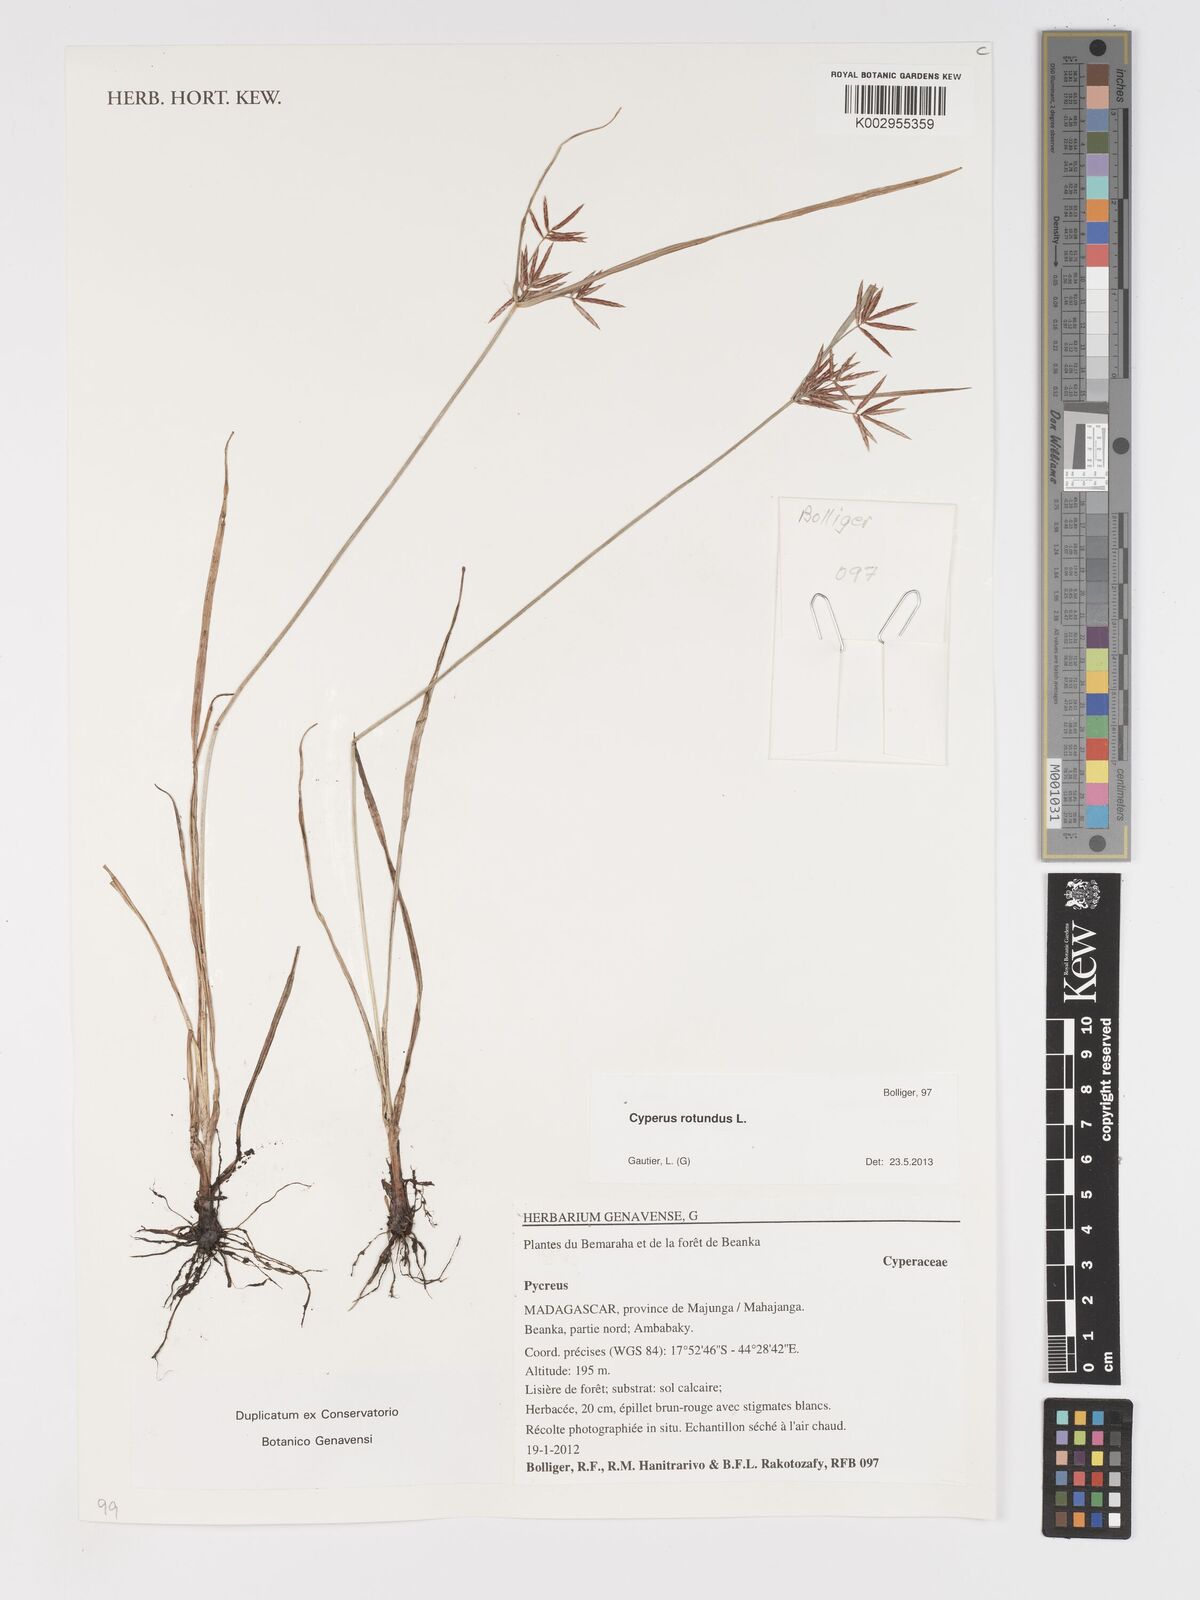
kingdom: Plantae
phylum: Tracheophyta
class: Liliopsida
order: Poales
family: Cyperaceae
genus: Cyperus
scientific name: Cyperus rotundus
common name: Nutgrass
